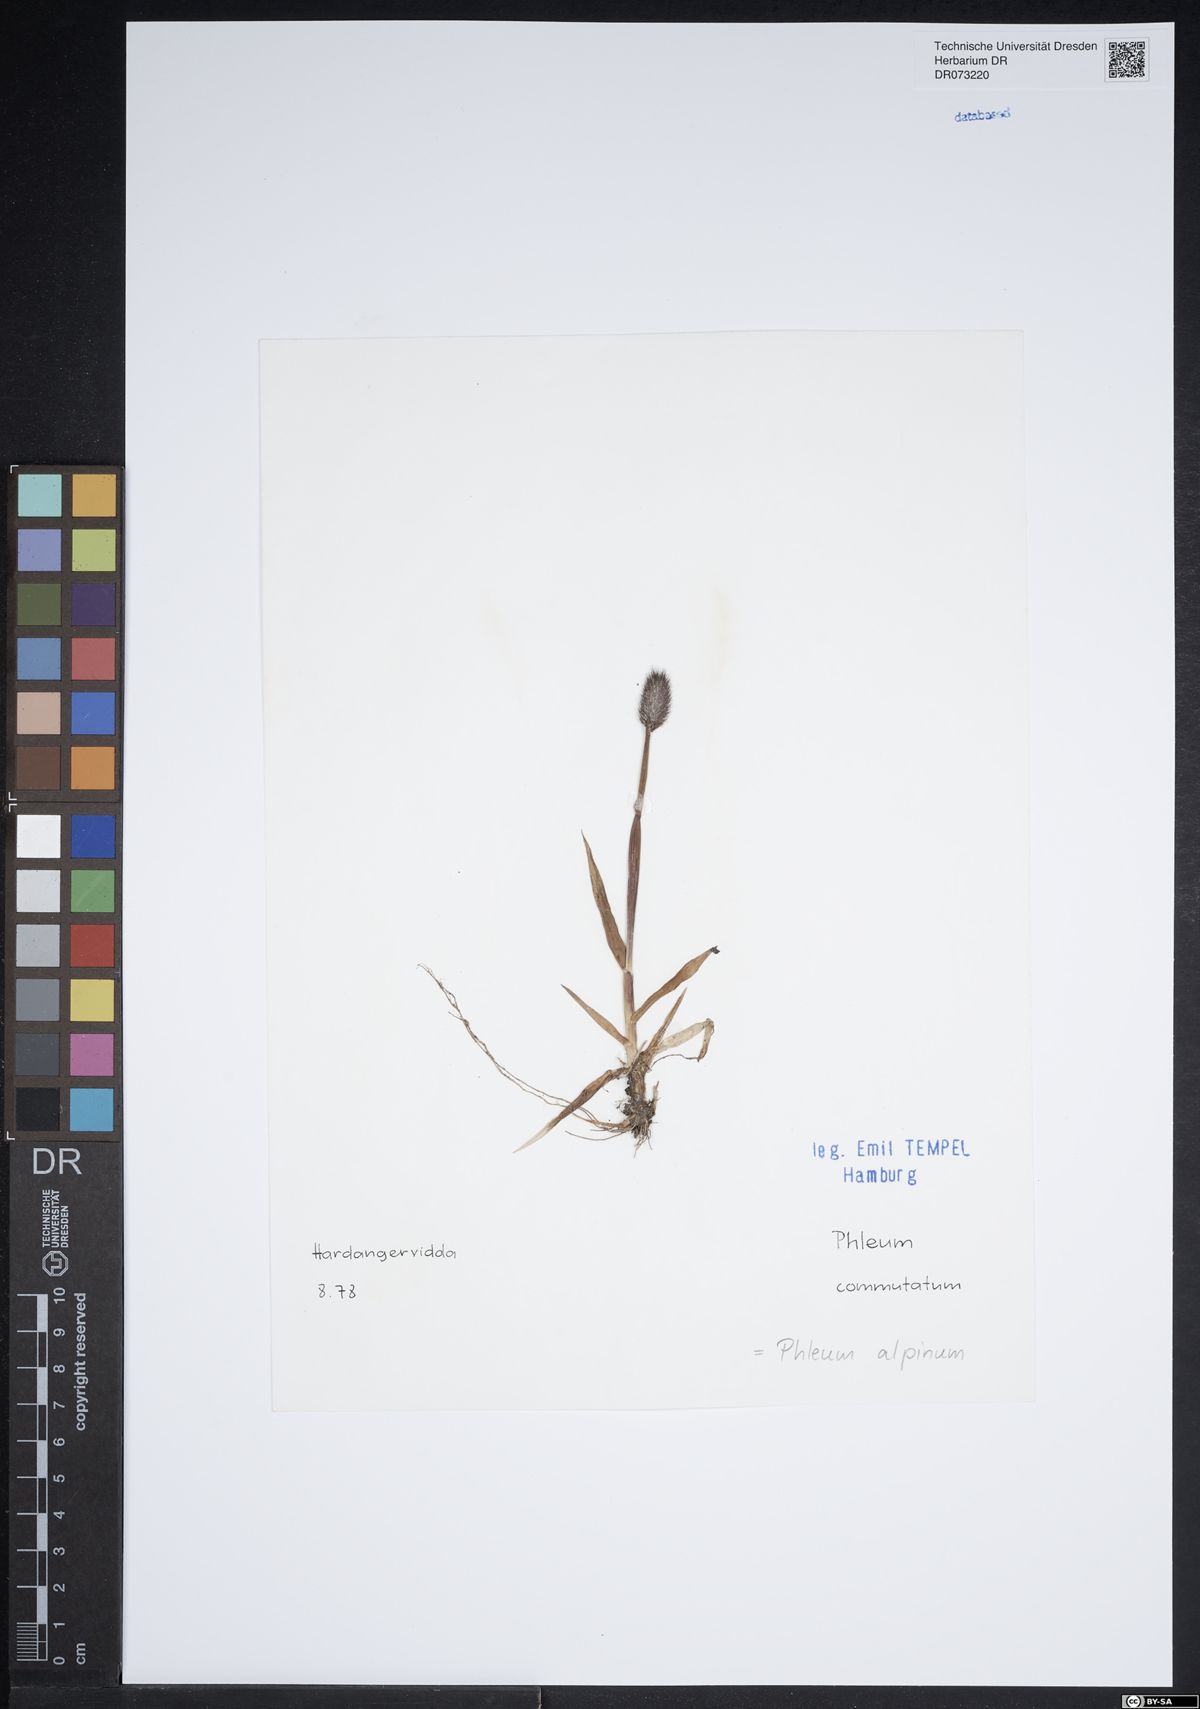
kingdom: Plantae
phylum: Tracheophyta
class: Liliopsida
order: Poales
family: Poaceae
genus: Phleum
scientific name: Phleum alpinum
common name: Alpine cat's-tail
